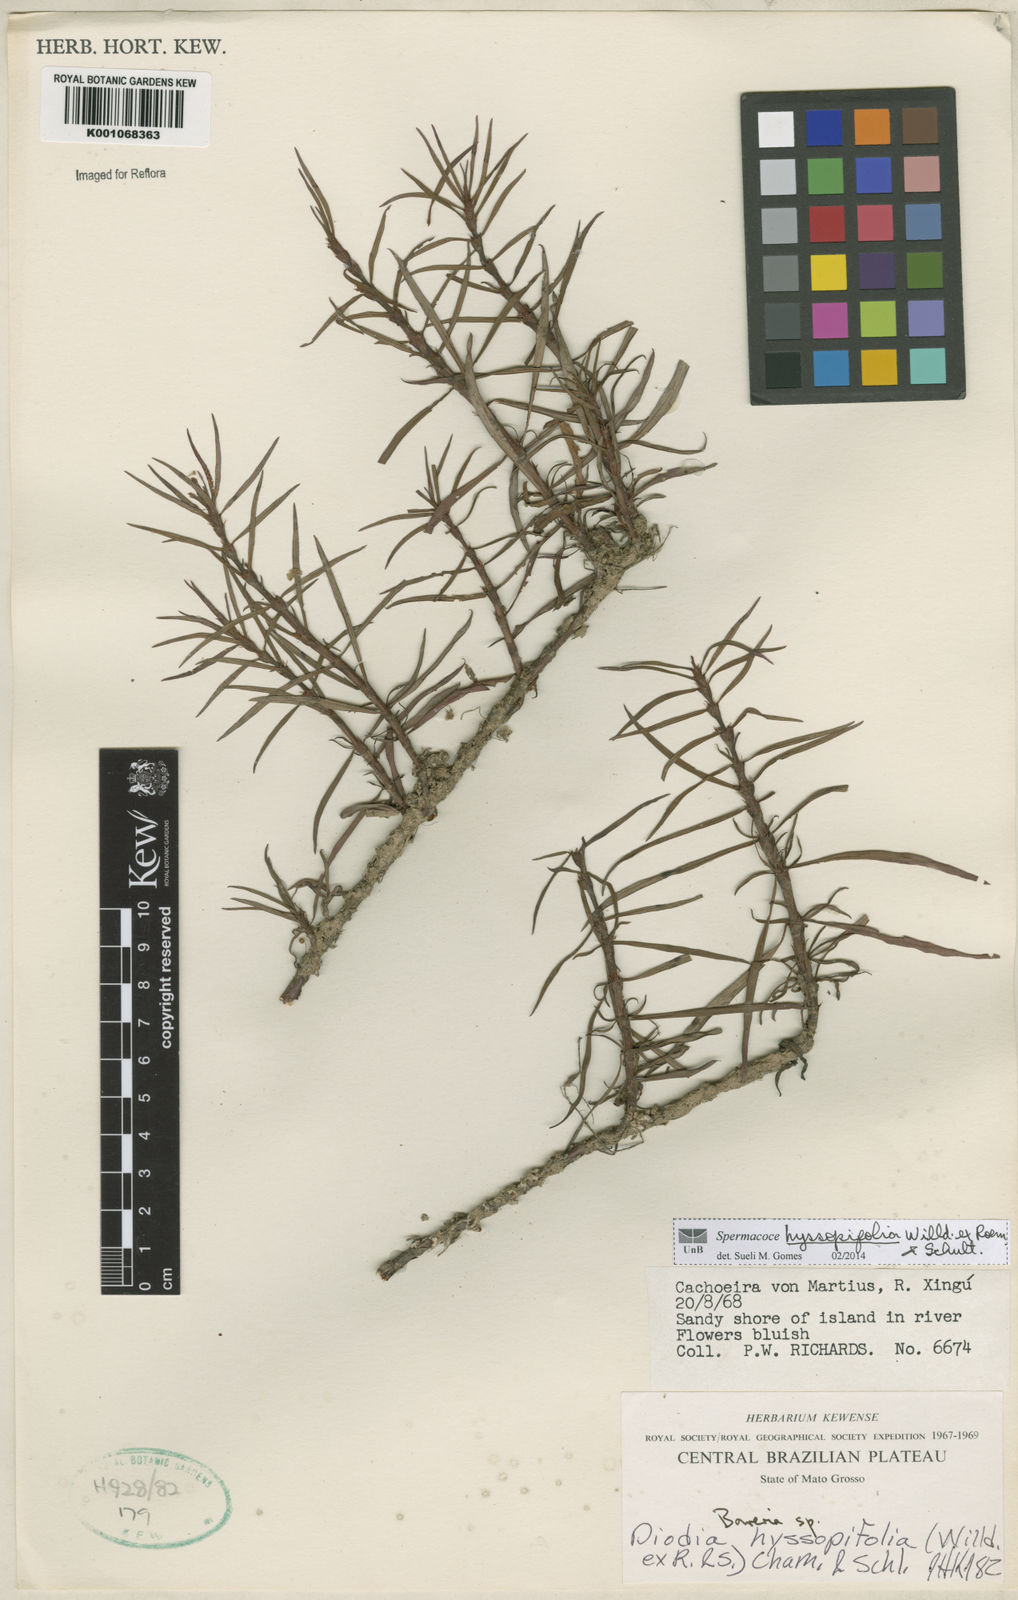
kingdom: Plantae
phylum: Tracheophyta
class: Magnoliopsida
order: Gentianales
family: Rubiaceae
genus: Spermacoce
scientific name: Spermacoce
